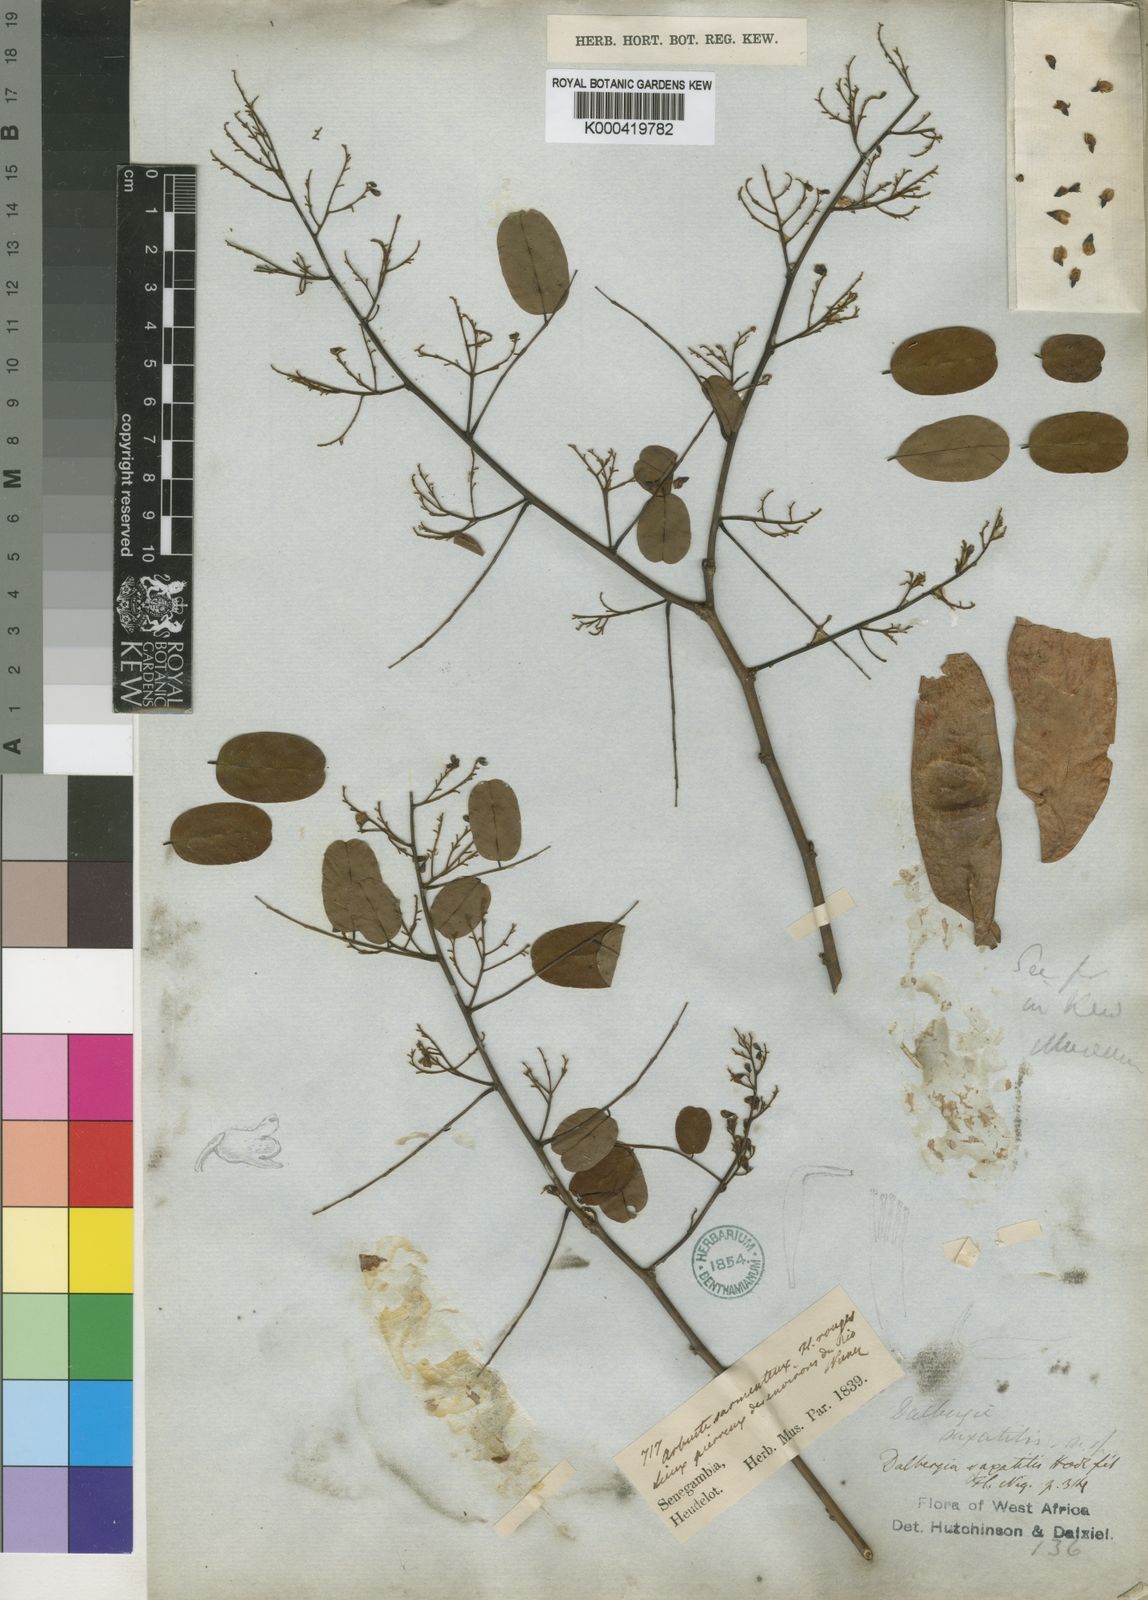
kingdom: Plantae
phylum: Tracheophyta
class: Magnoliopsida
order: Fabales
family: Fabaceae
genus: Dalbergia
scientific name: Dalbergia saxatilis
